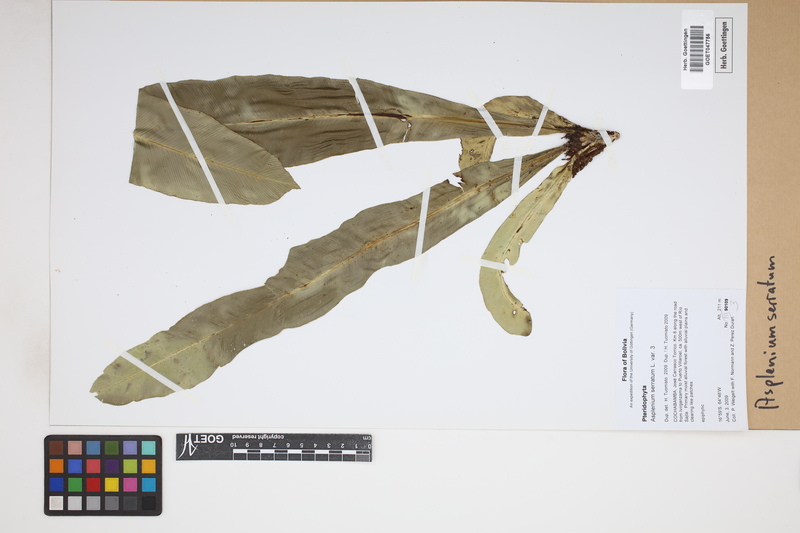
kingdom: Plantae
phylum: Tracheophyta
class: Polypodiopsida
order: Polypodiales
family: Aspleniaceae
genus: Asplenium
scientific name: Asplenium serratum
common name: Wild birdnest fern
